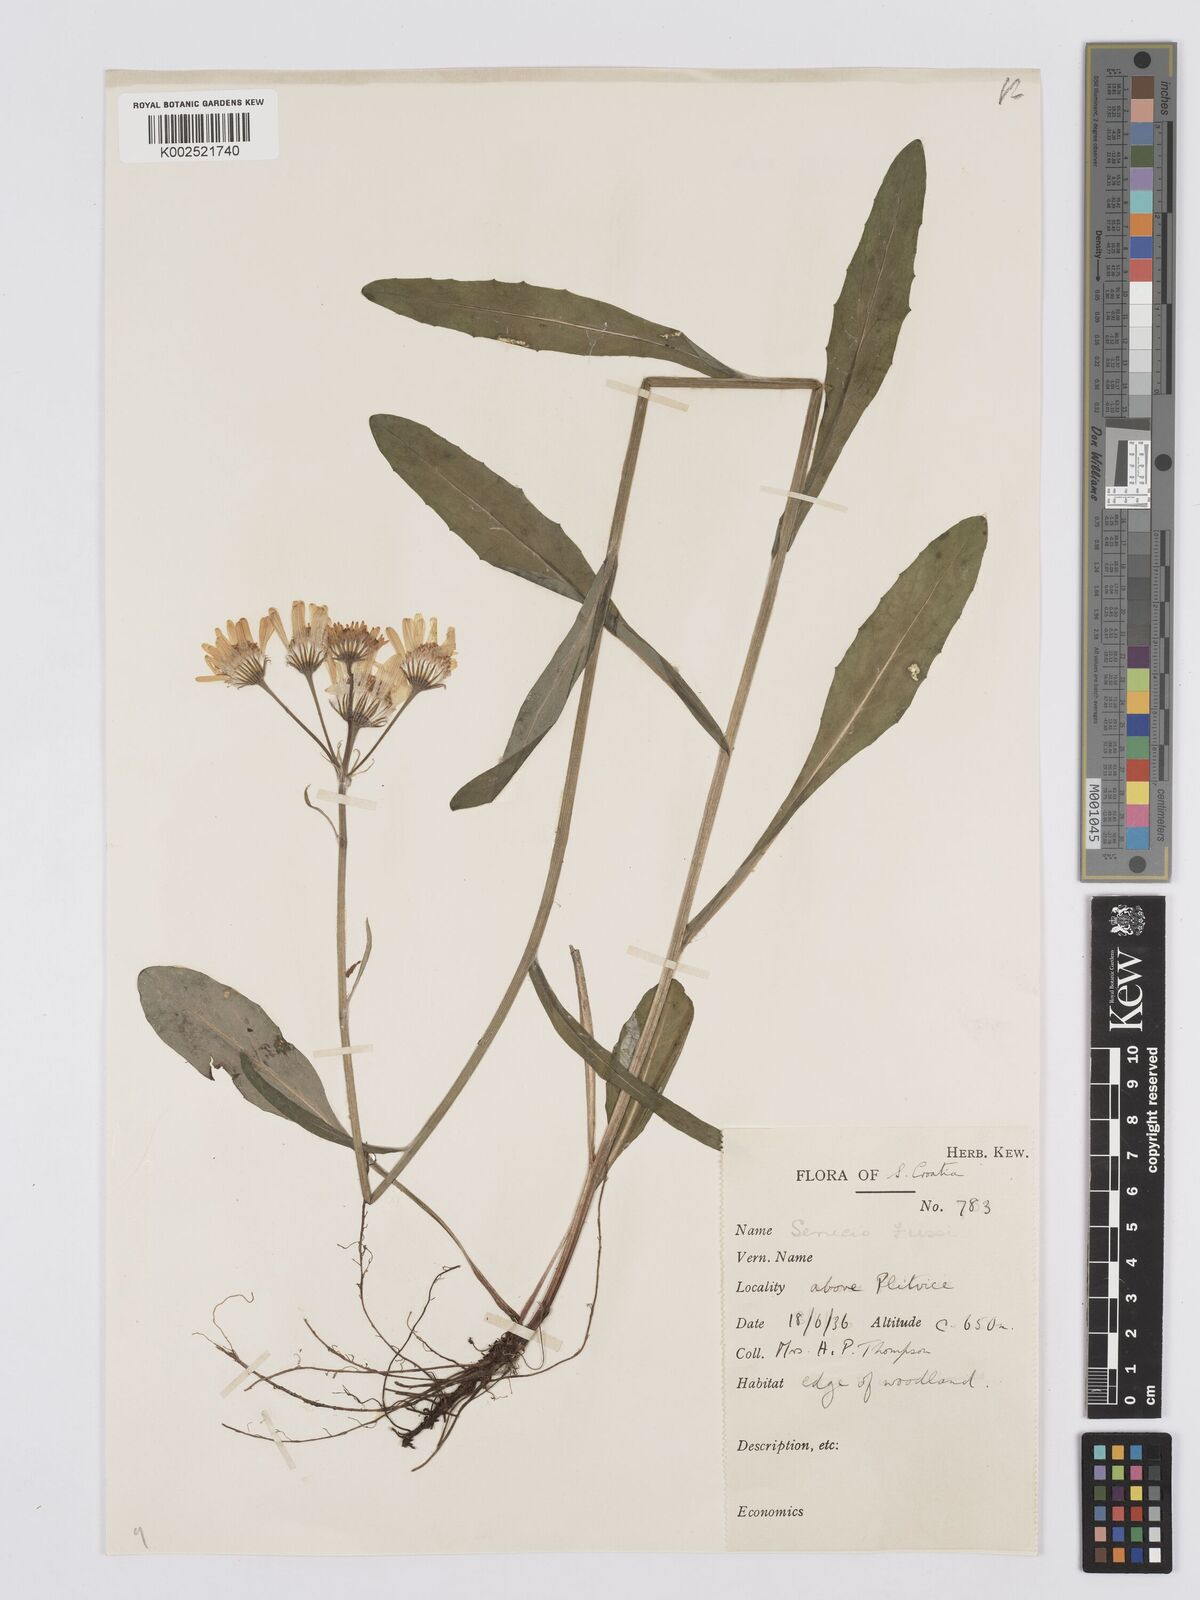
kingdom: Plantae
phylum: Tracheophyta
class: Magnoliopsida
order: Asterales
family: Asteraceae
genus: Tephroseris
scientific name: Tephroseris papposa
